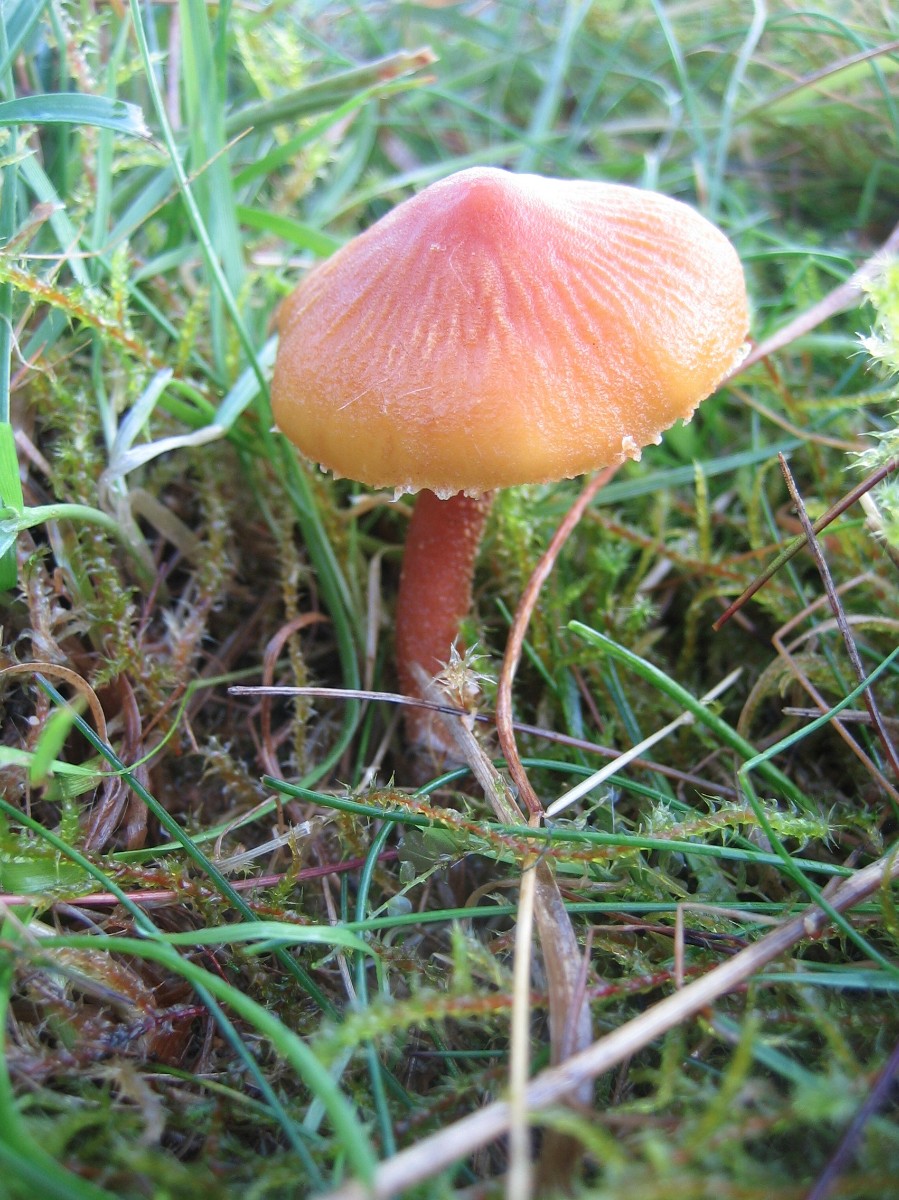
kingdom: Fungi
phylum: Basidiomycota
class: Agaricomycetes
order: Agaricales
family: Tricholomataceae
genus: Cystoderma
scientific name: Cystoderma amianthinum
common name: okkergul grynhat
